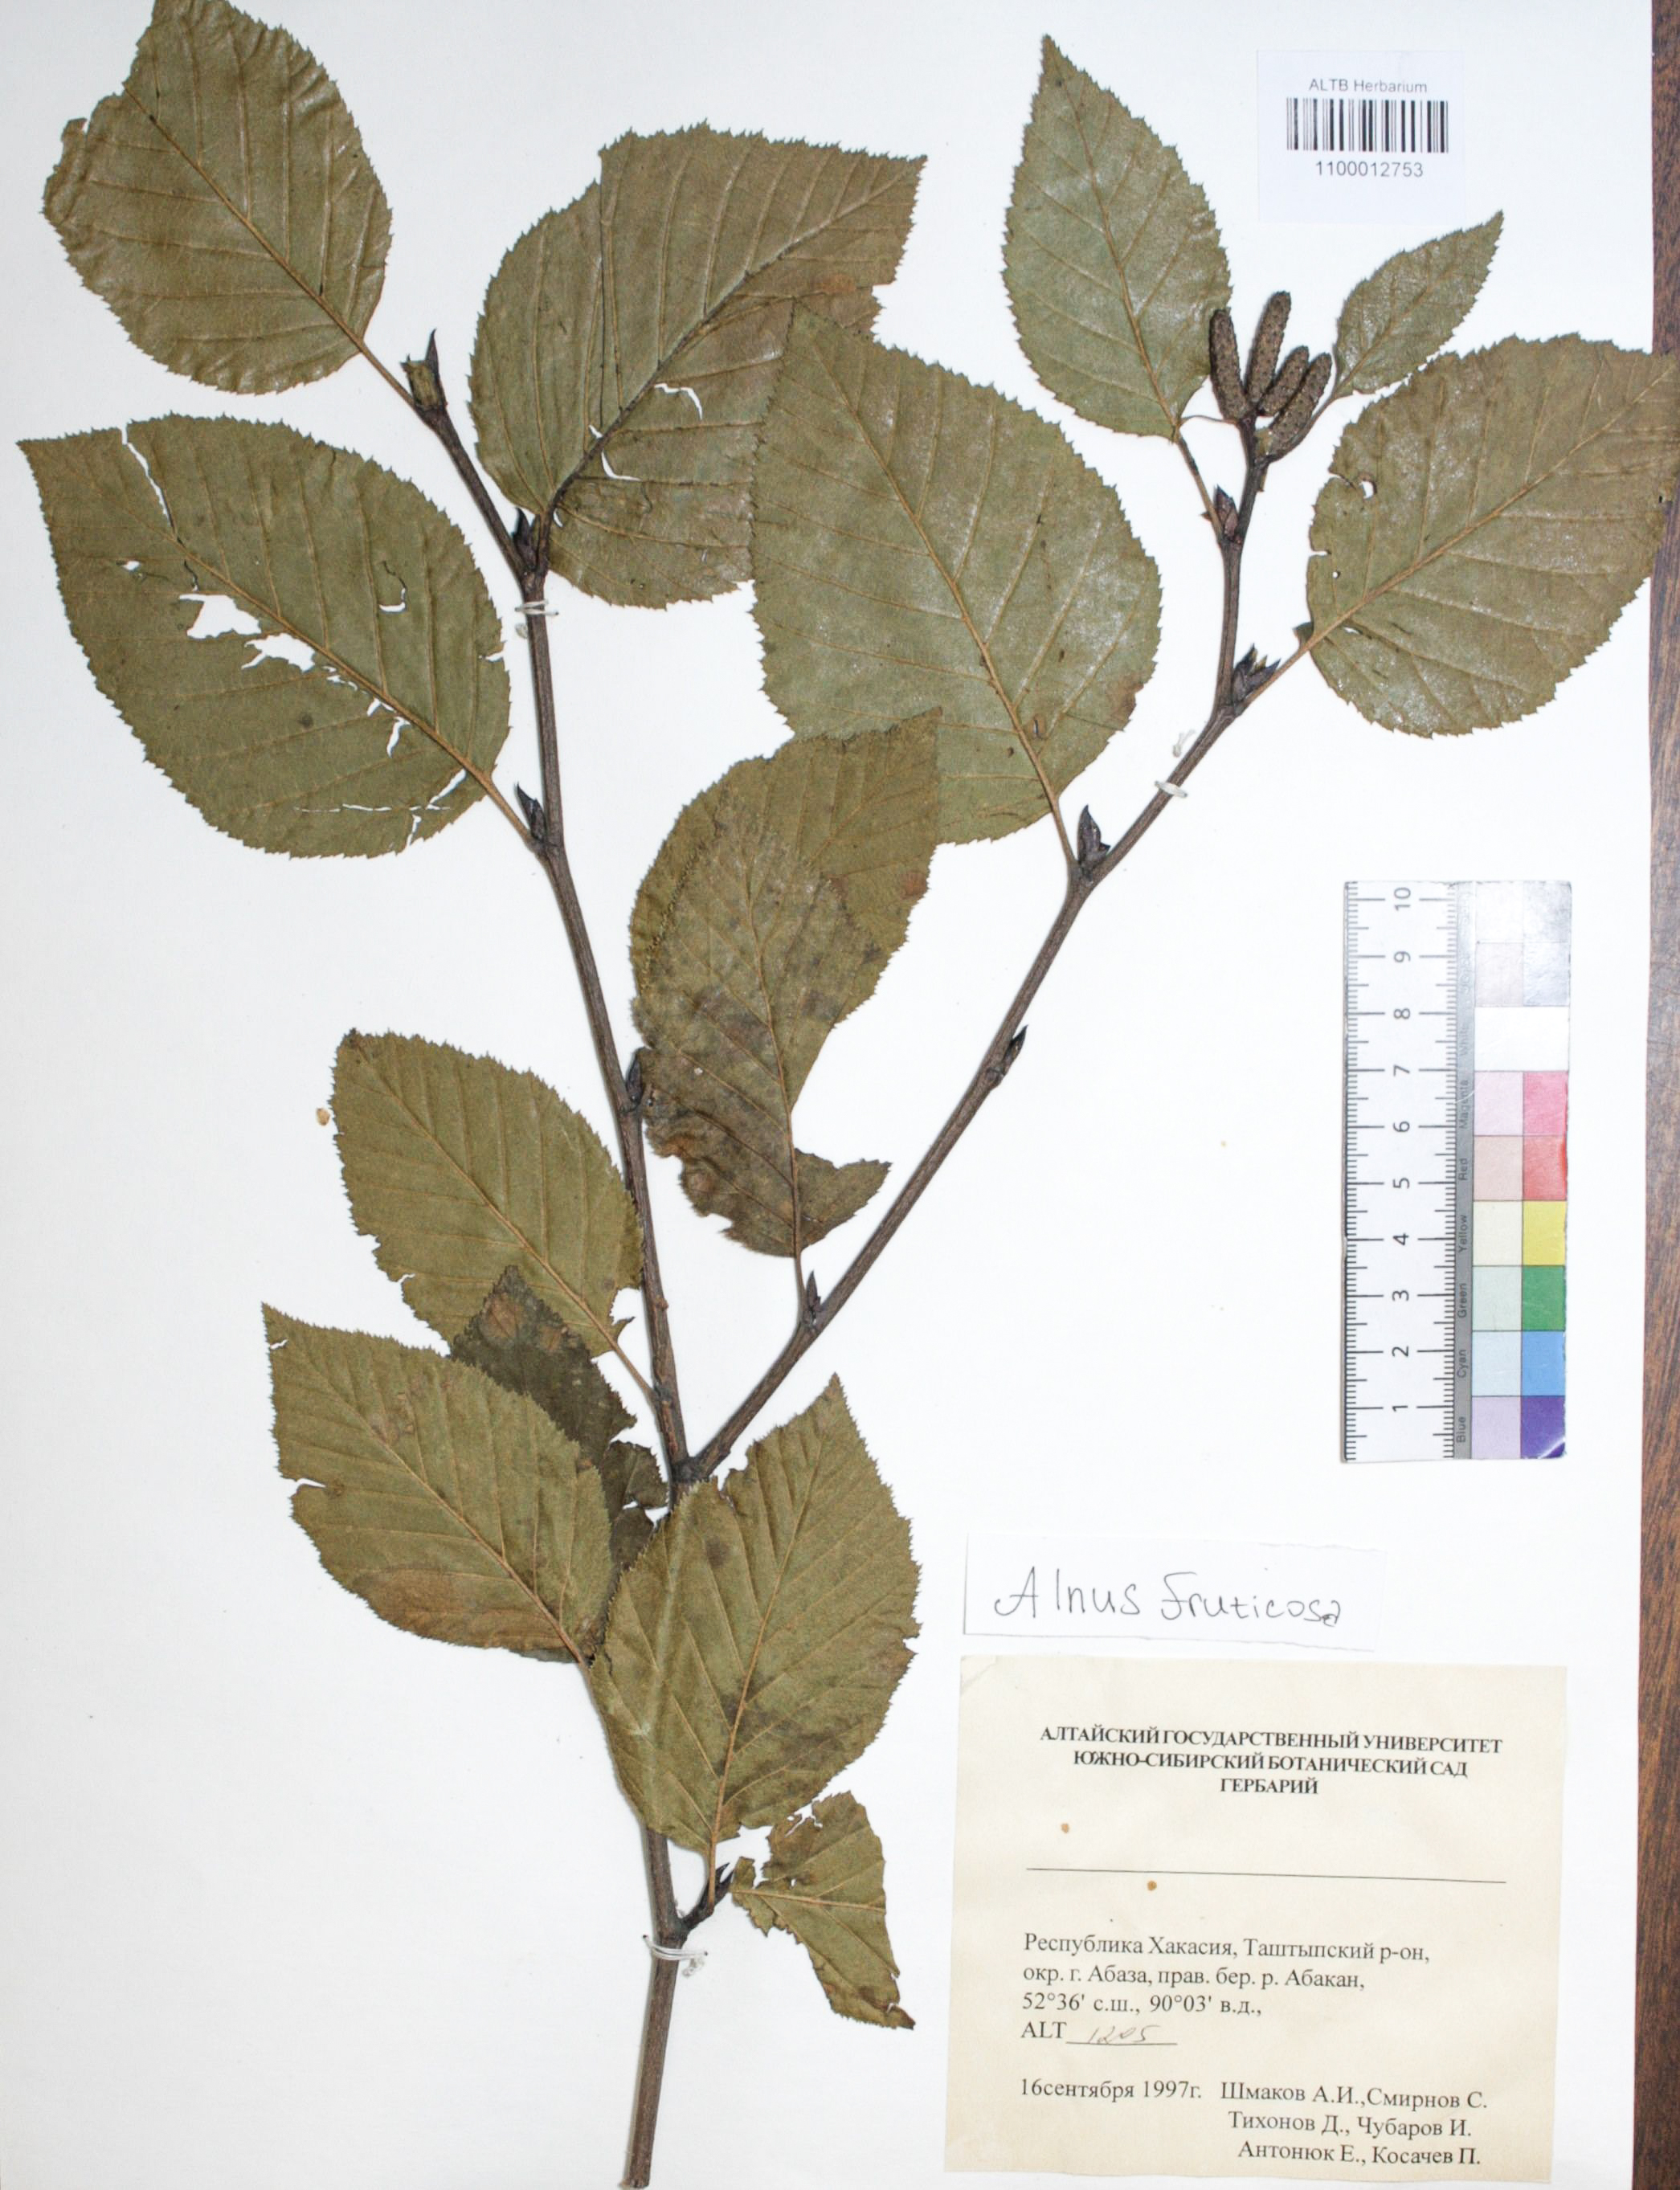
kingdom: Plantae
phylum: Tracheophyta
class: Magnoliopsida
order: Fagales
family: Betulaceae
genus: Alnus
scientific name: Alnus alnobetula
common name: Green alder
